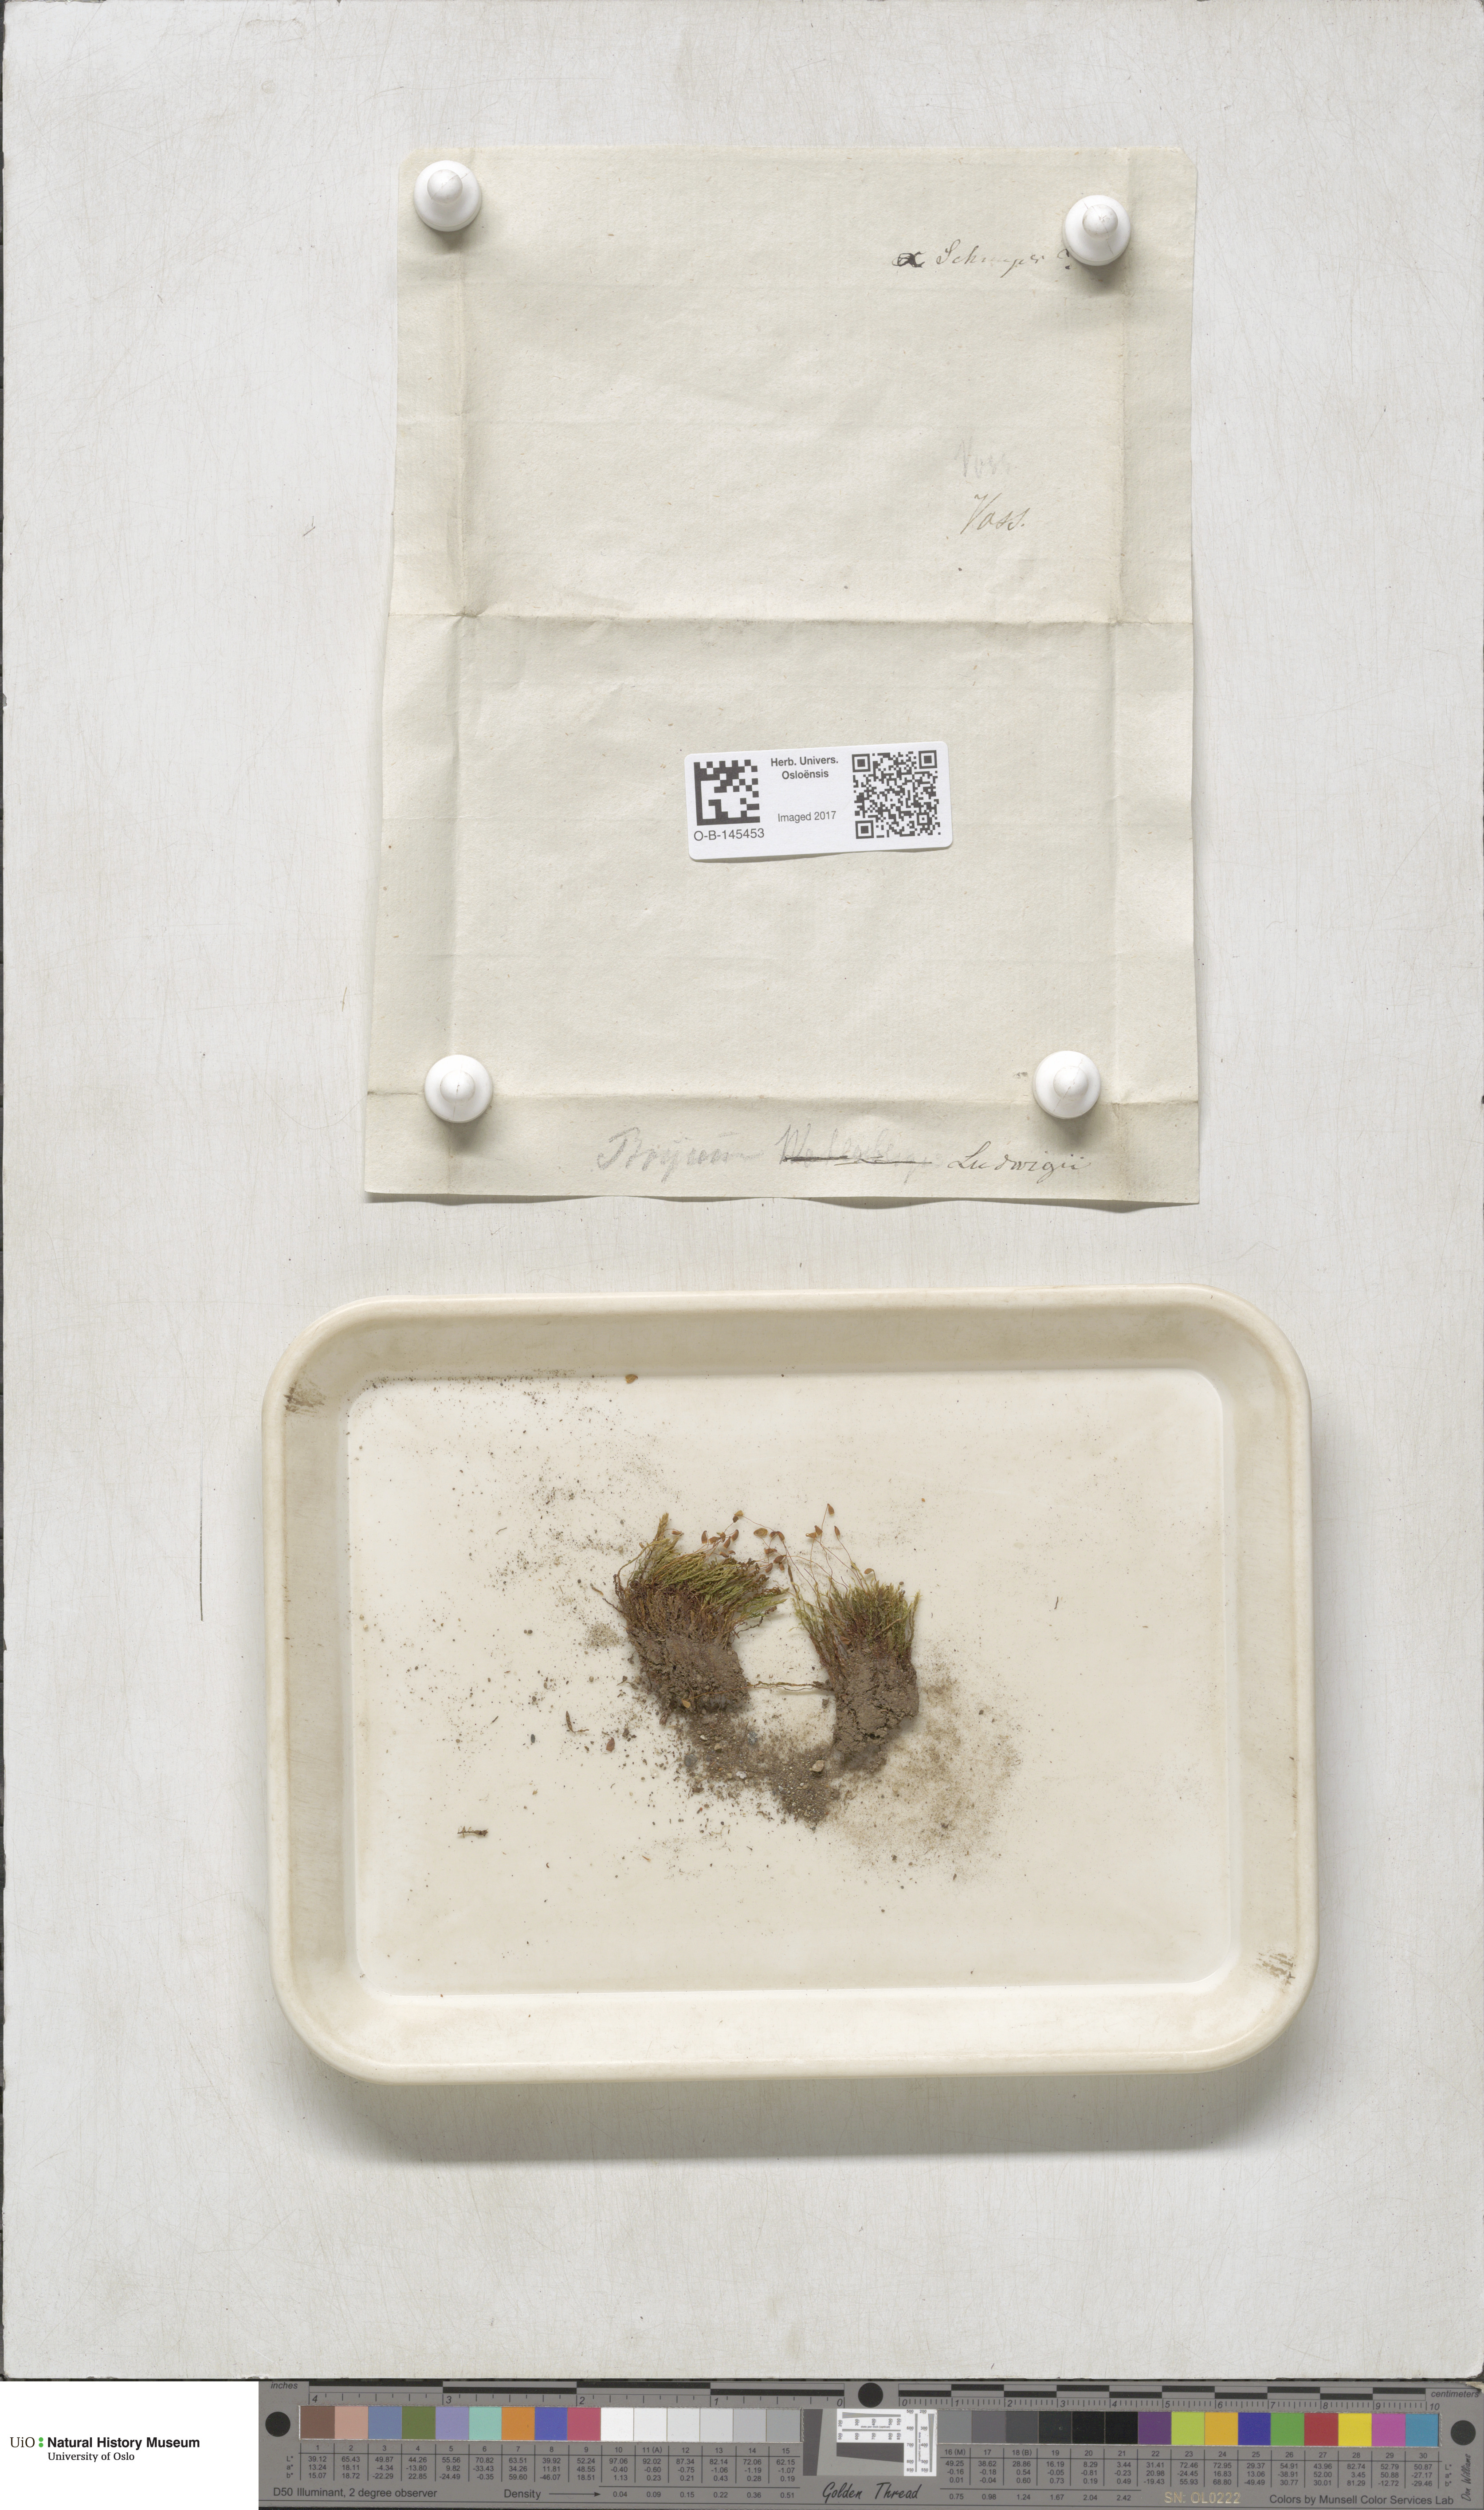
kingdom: Plantae
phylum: Bryophyta
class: Bryopsida
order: Bryales
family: Mniaceae
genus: Pohlia
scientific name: Pohlia ludwigii
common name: Ludwig's thread-moss
